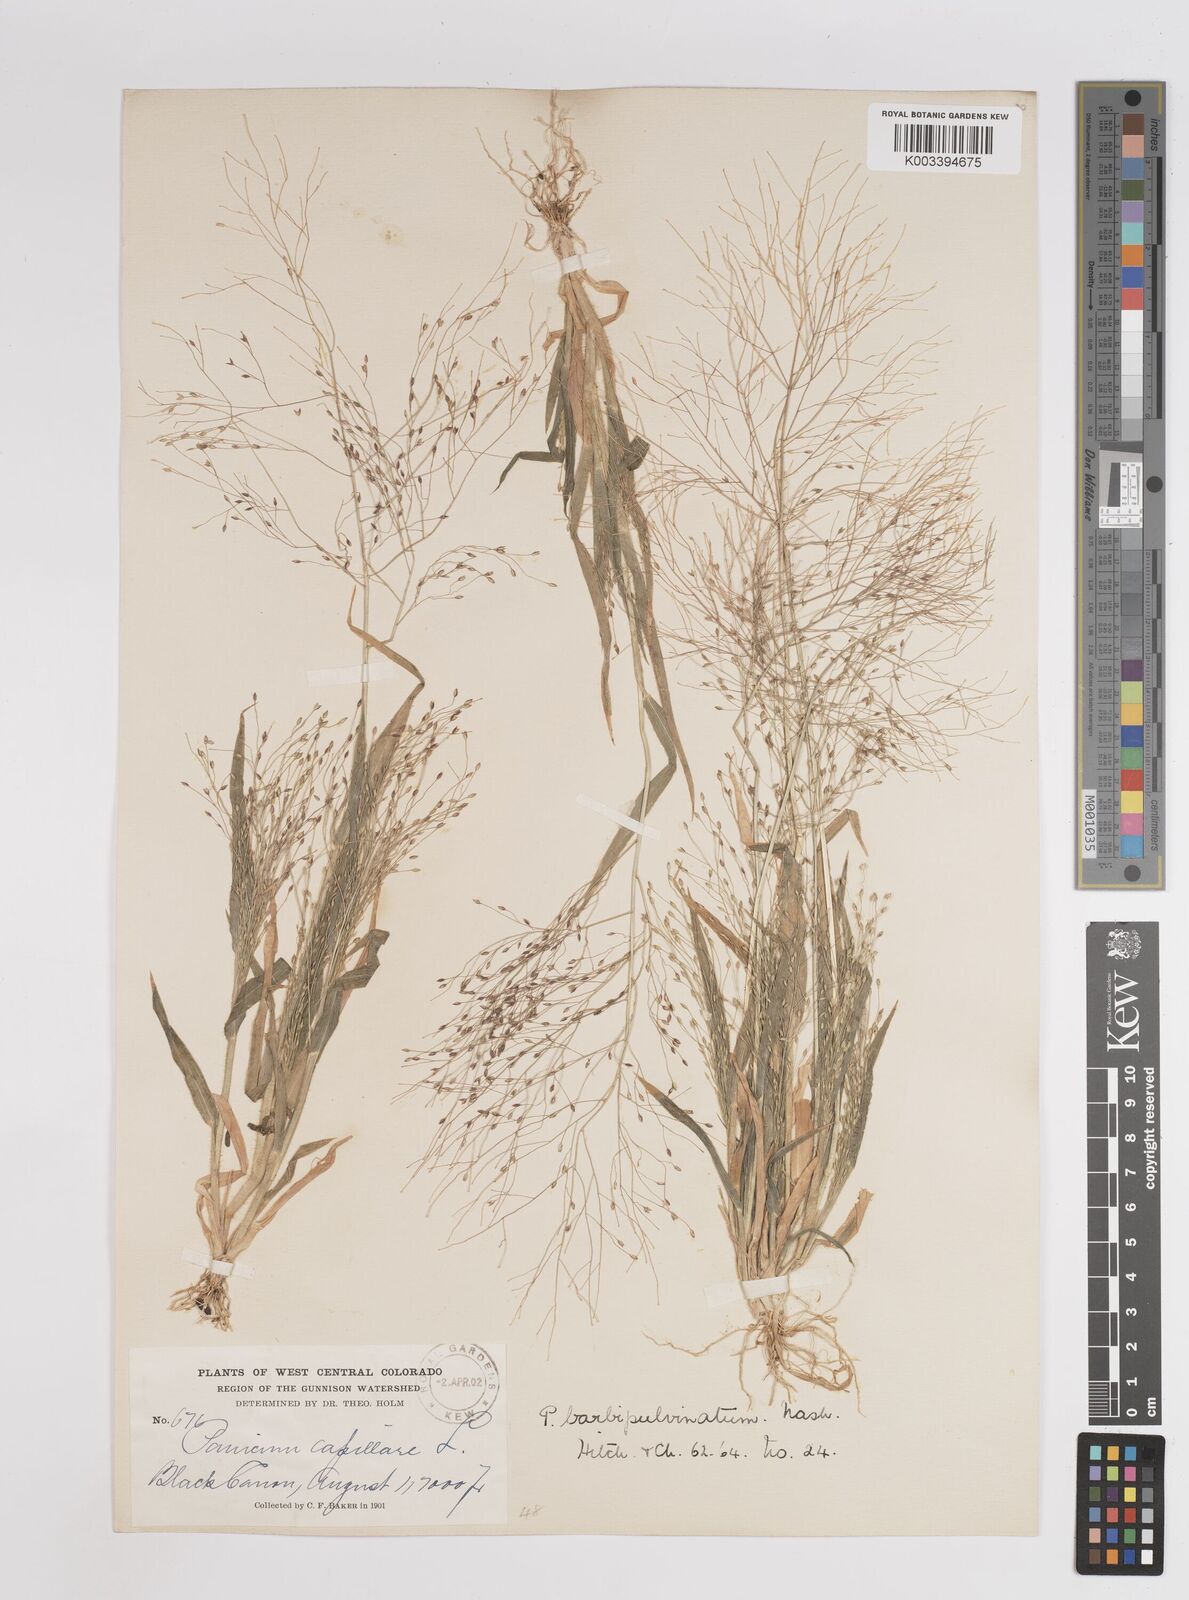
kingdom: Plantae
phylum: Tracheophyta
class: Liliopsida
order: Poales
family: Poaceae
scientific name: Poaceae
